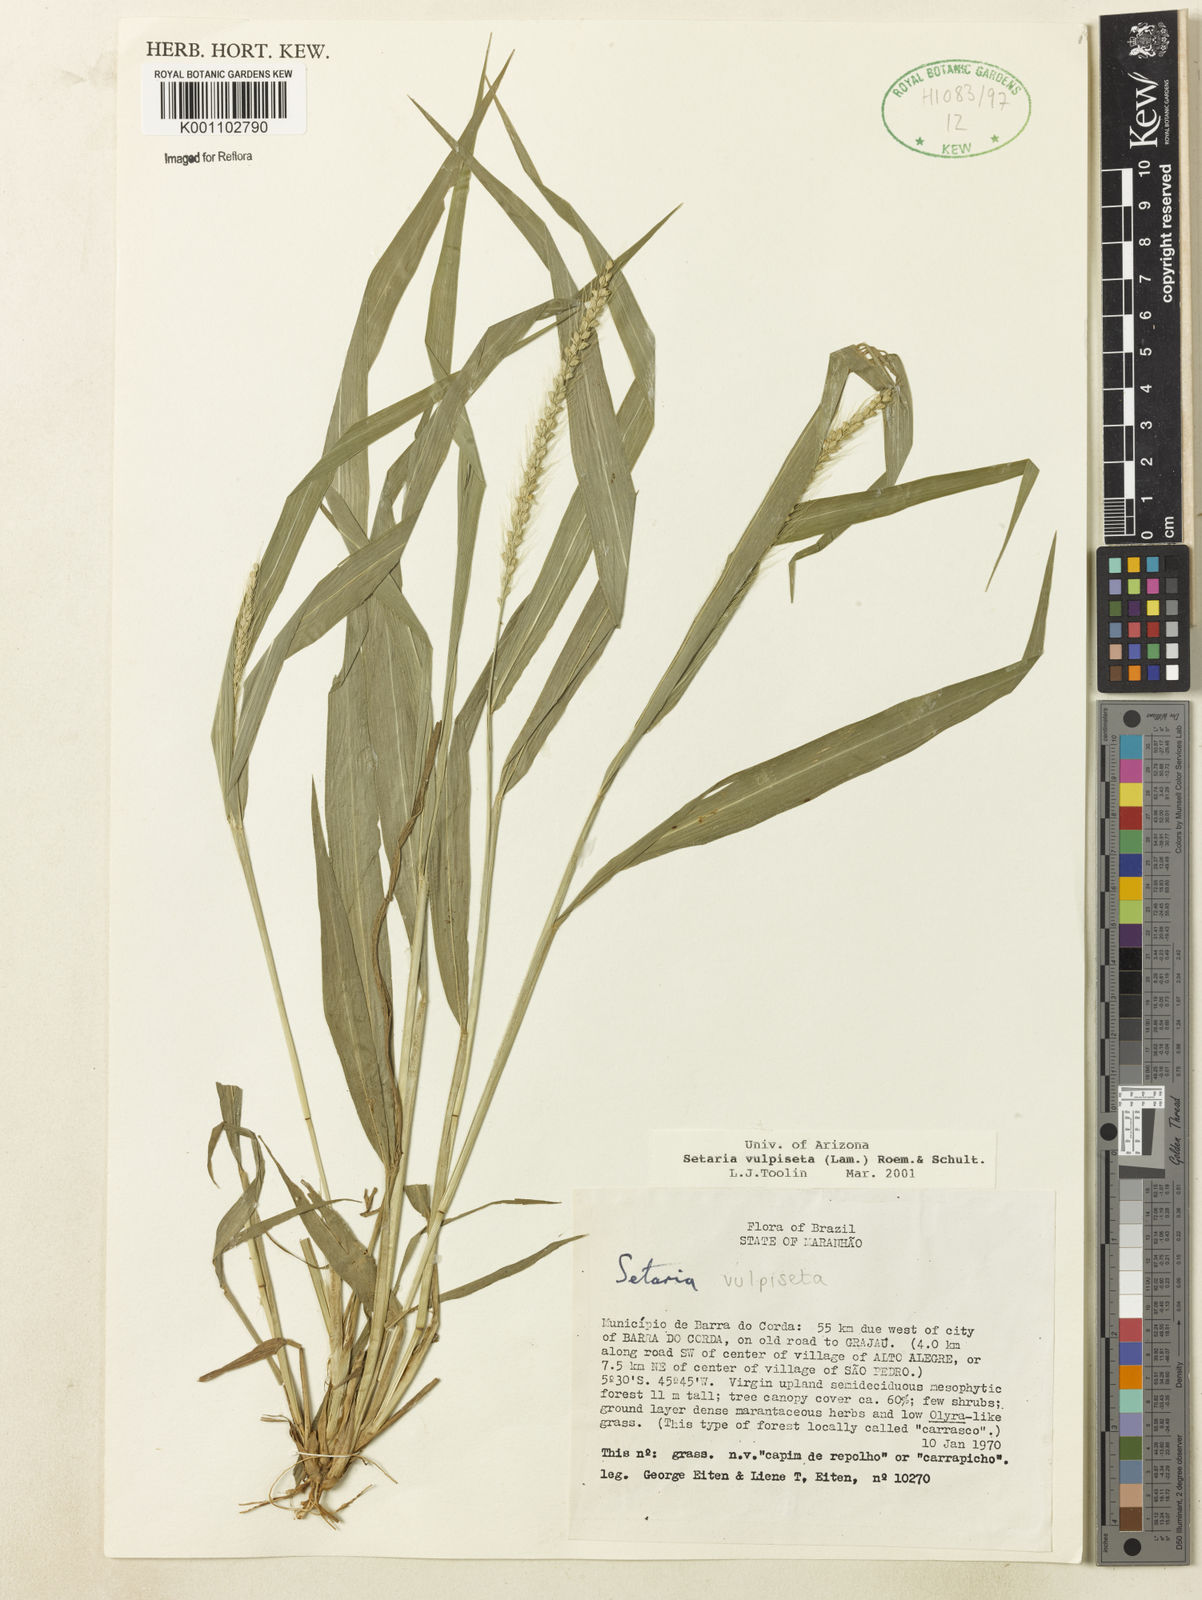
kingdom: Plantae
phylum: Tracheophyta
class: Liliopsida
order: Poales
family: Poaceae
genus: Setaria
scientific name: Setaria lachnea
